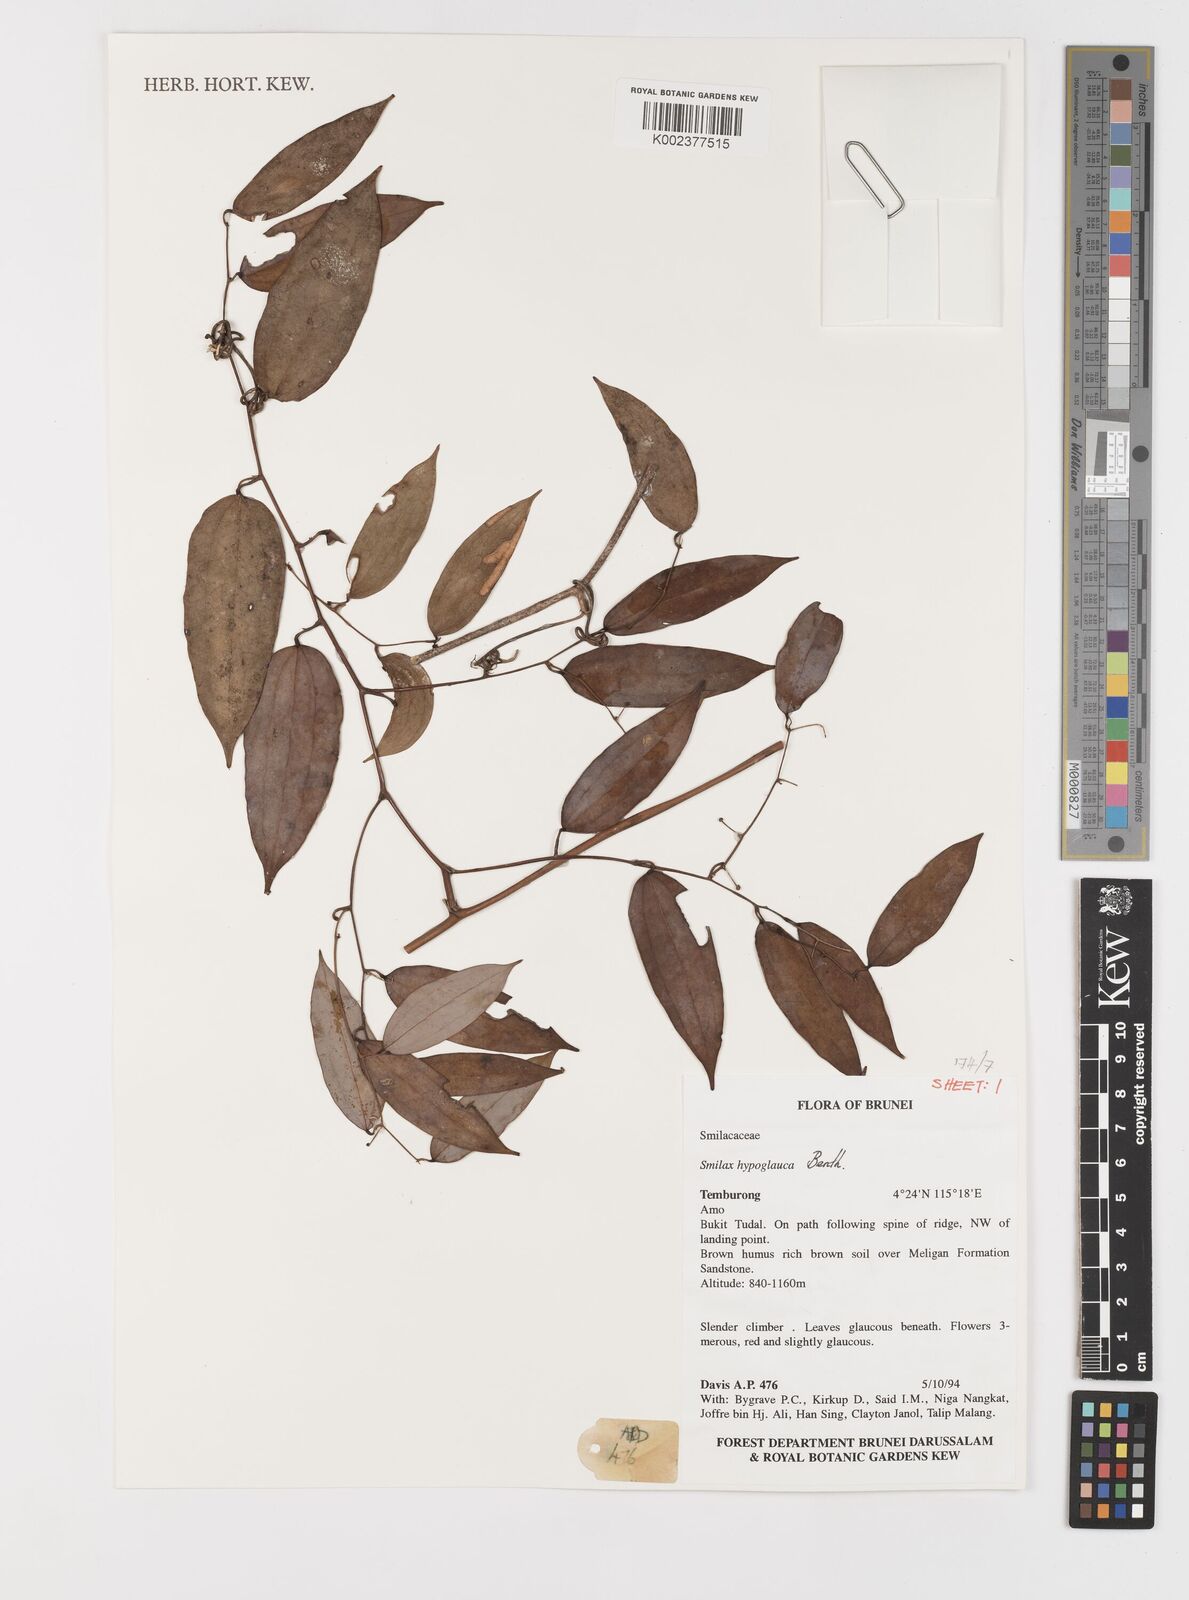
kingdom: Plantae
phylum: Tracheophyta
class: Liliopsida
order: Liliales
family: Smilacaceae
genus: Smilax
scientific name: Smilax hypoglauca
